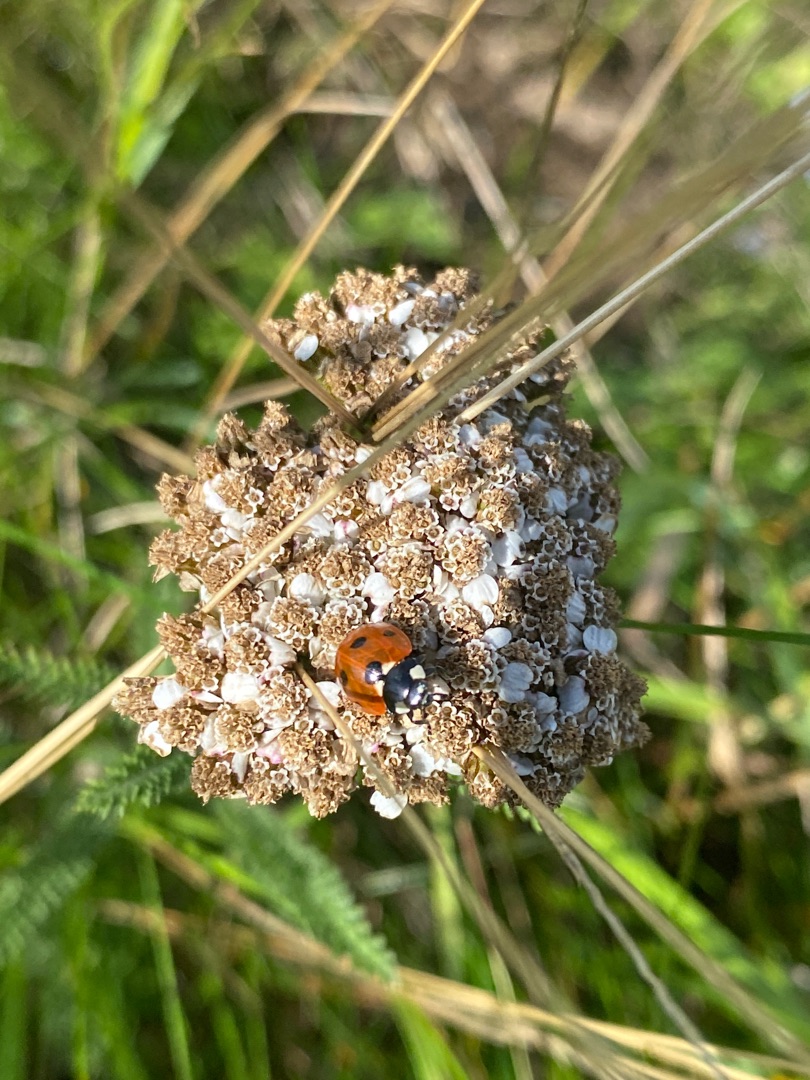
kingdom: Animalia
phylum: Arthropoda
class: Insecta
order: Coleoptera
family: Coccinellidae
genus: Coccinella
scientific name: Coccinella septempunctata
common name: Syvplettet mariehøne
